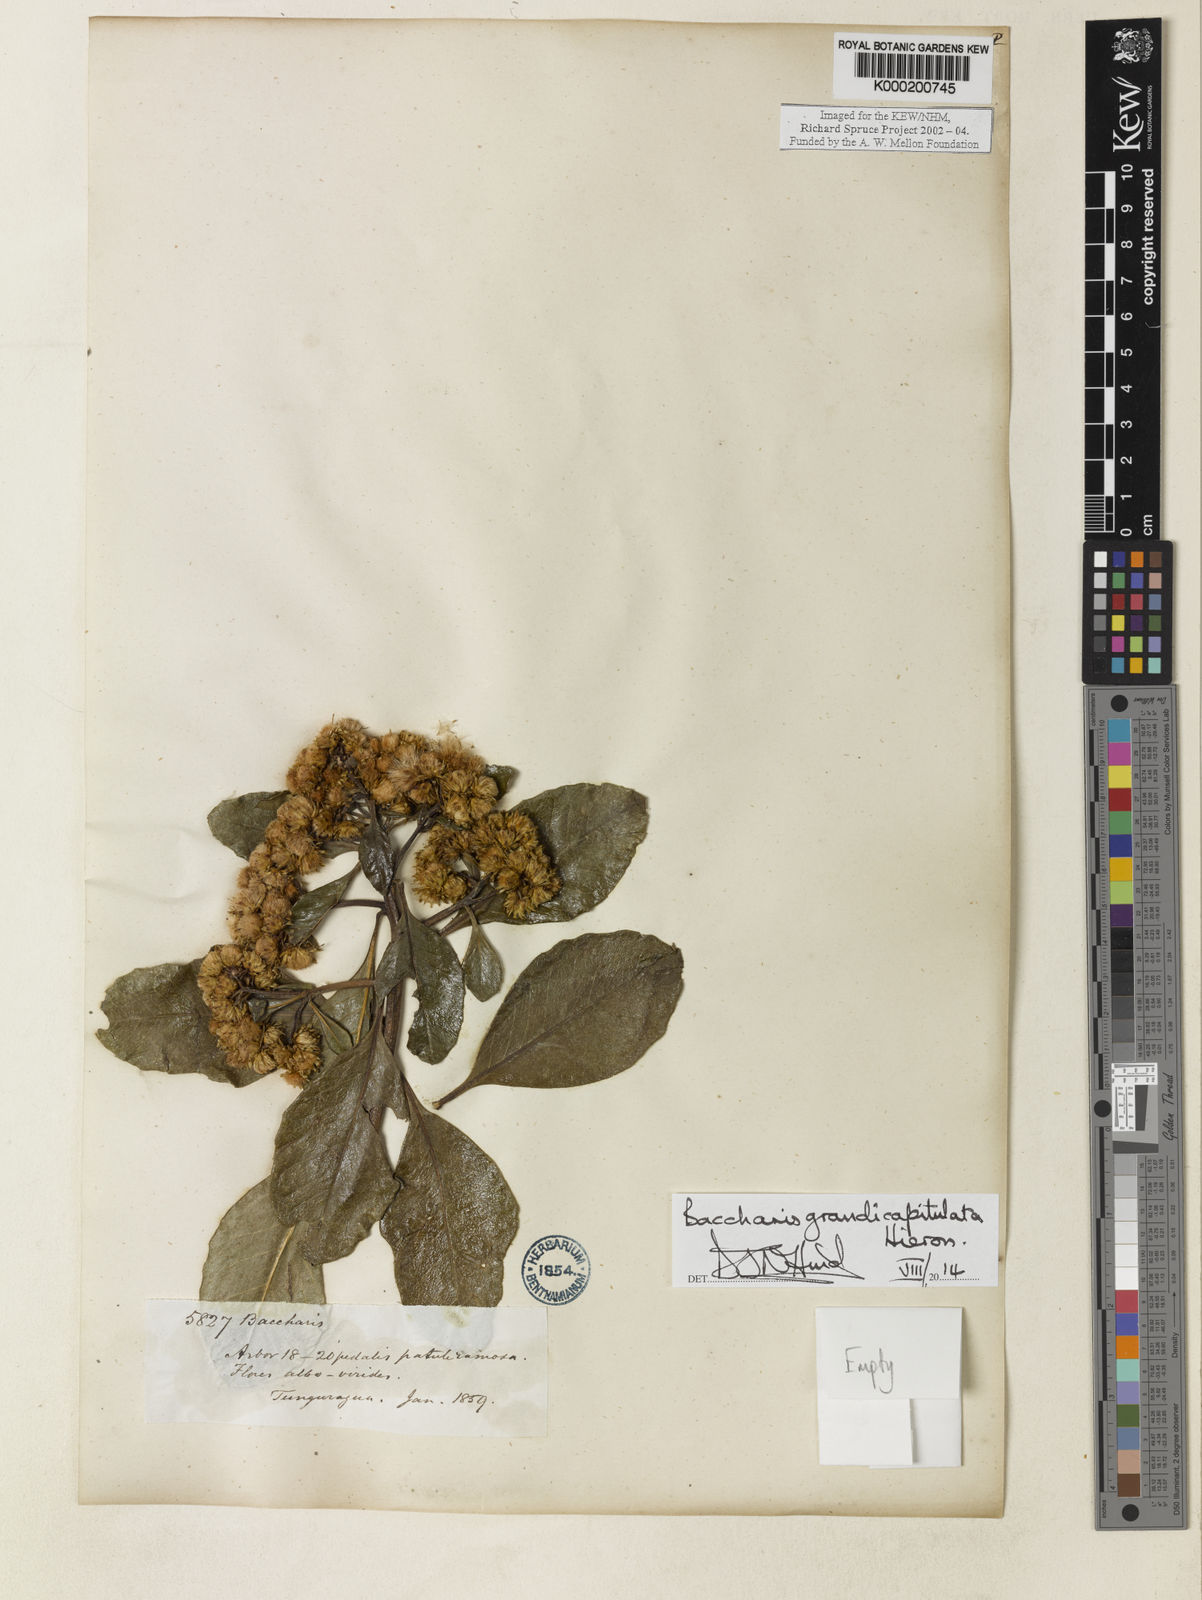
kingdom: Plantae
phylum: Tracheophyta
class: Magnoliopsida
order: Asterales
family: Asteraceae
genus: Baccharis
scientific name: Baccharis grandicapitulata
